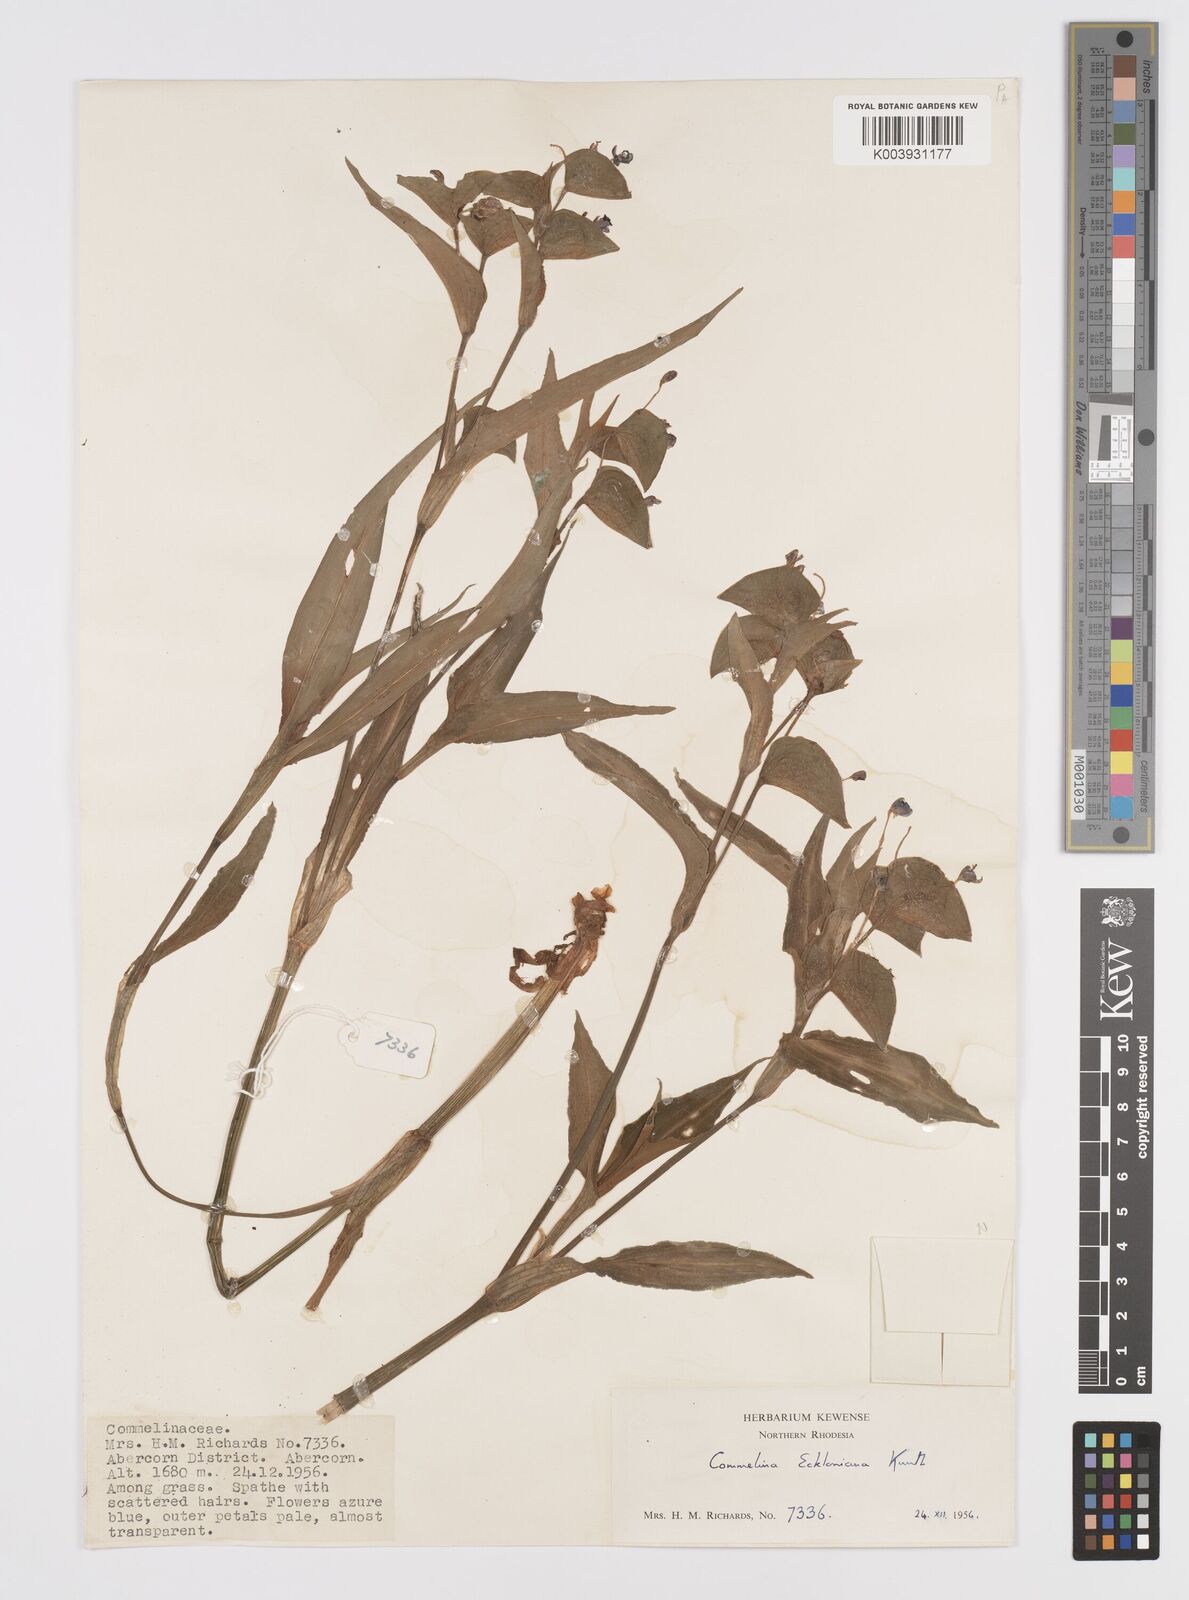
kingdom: Plantae
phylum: Tracheophyta
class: Liliopsida
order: Commelinales
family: Commelinaceae
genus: Commelina
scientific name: Commelina eckloniana
